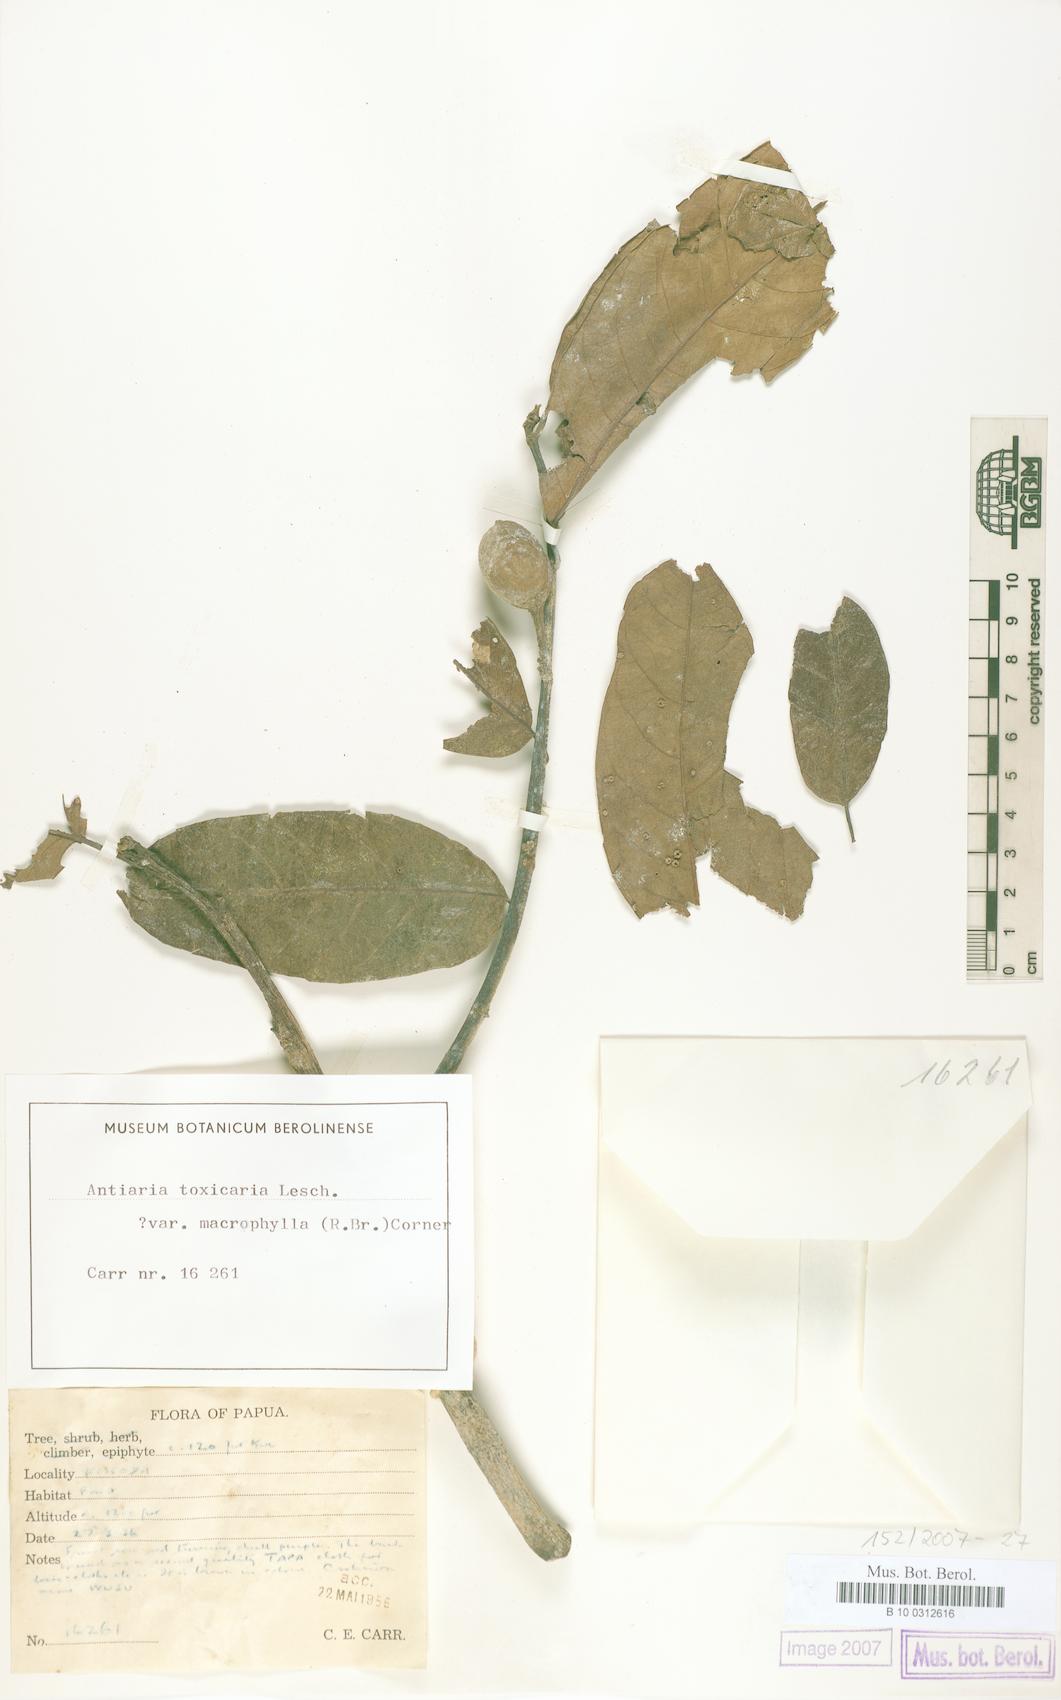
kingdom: Plantae
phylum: Tracheophyta
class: Magnoliopsida
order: Rosales
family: Moraceae
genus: Antiaris
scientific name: Antiaris toxicaria
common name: Sackingtree
